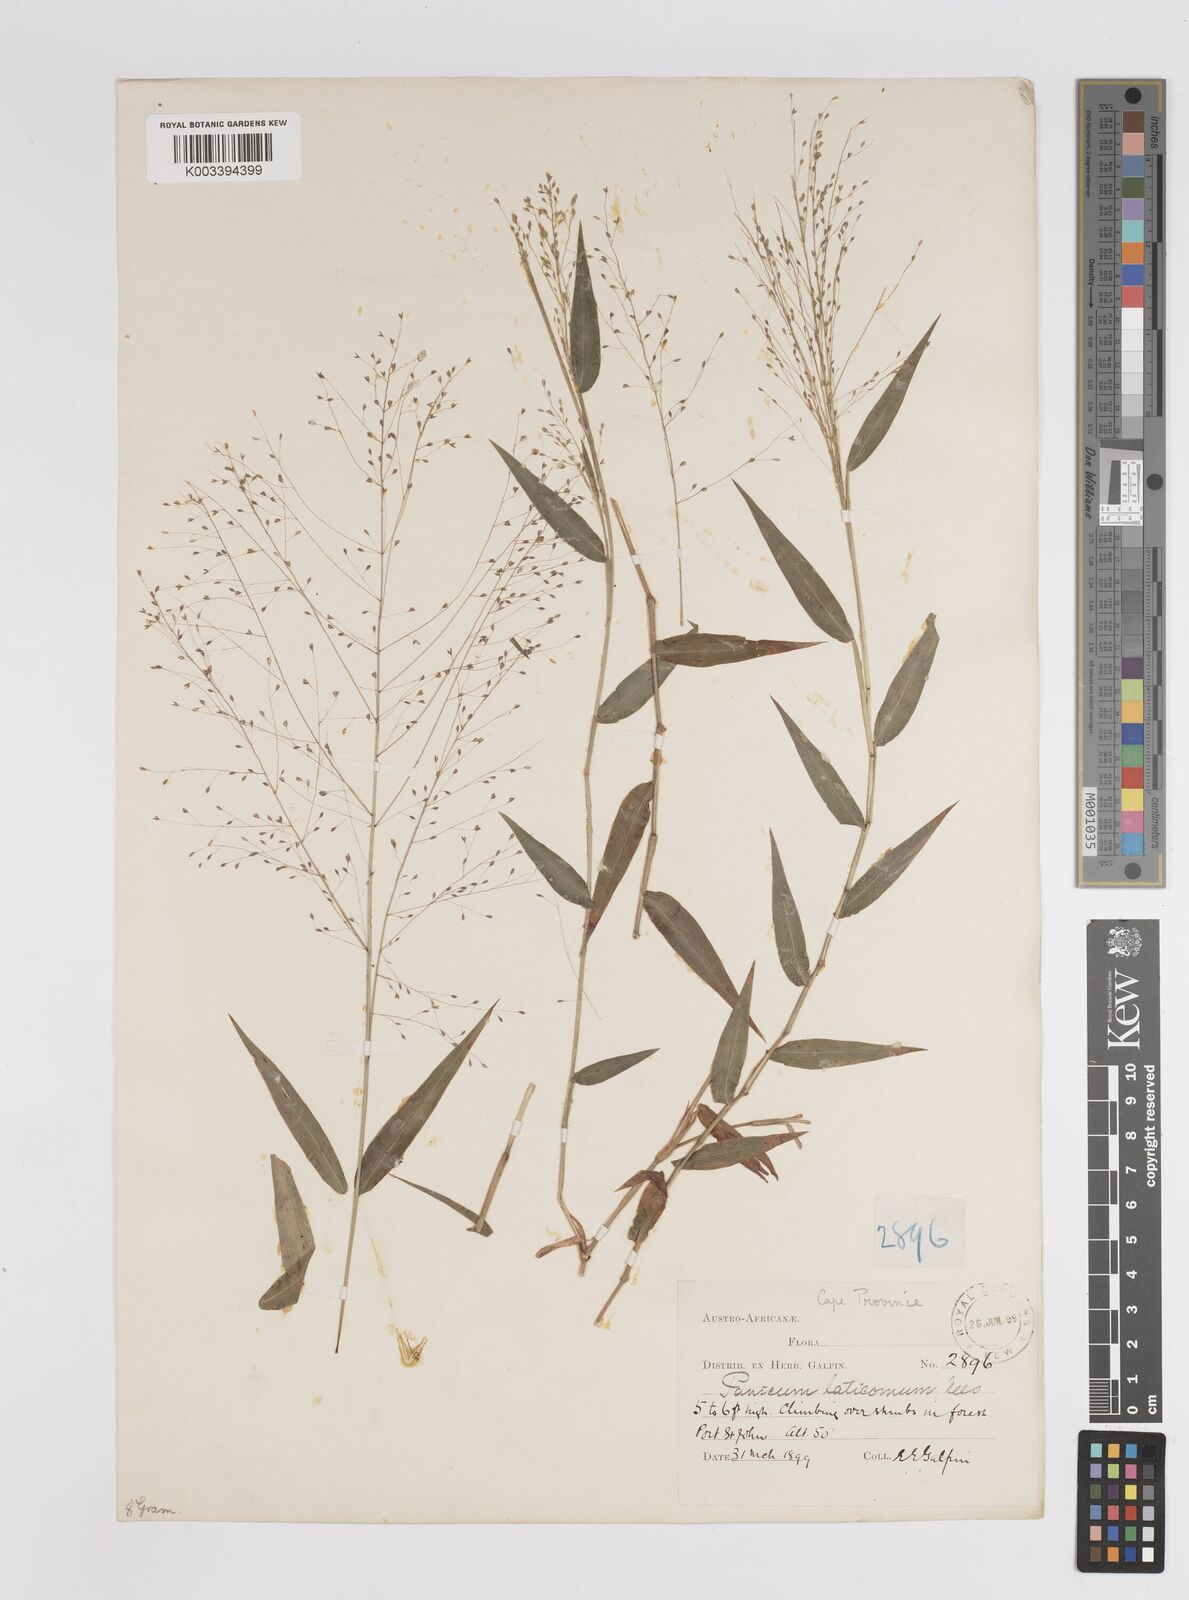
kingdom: Plantae
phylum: Tracheophyta
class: Liliopsida
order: Poales
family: Poaceae
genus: Panicum
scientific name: Panicum laticomum
